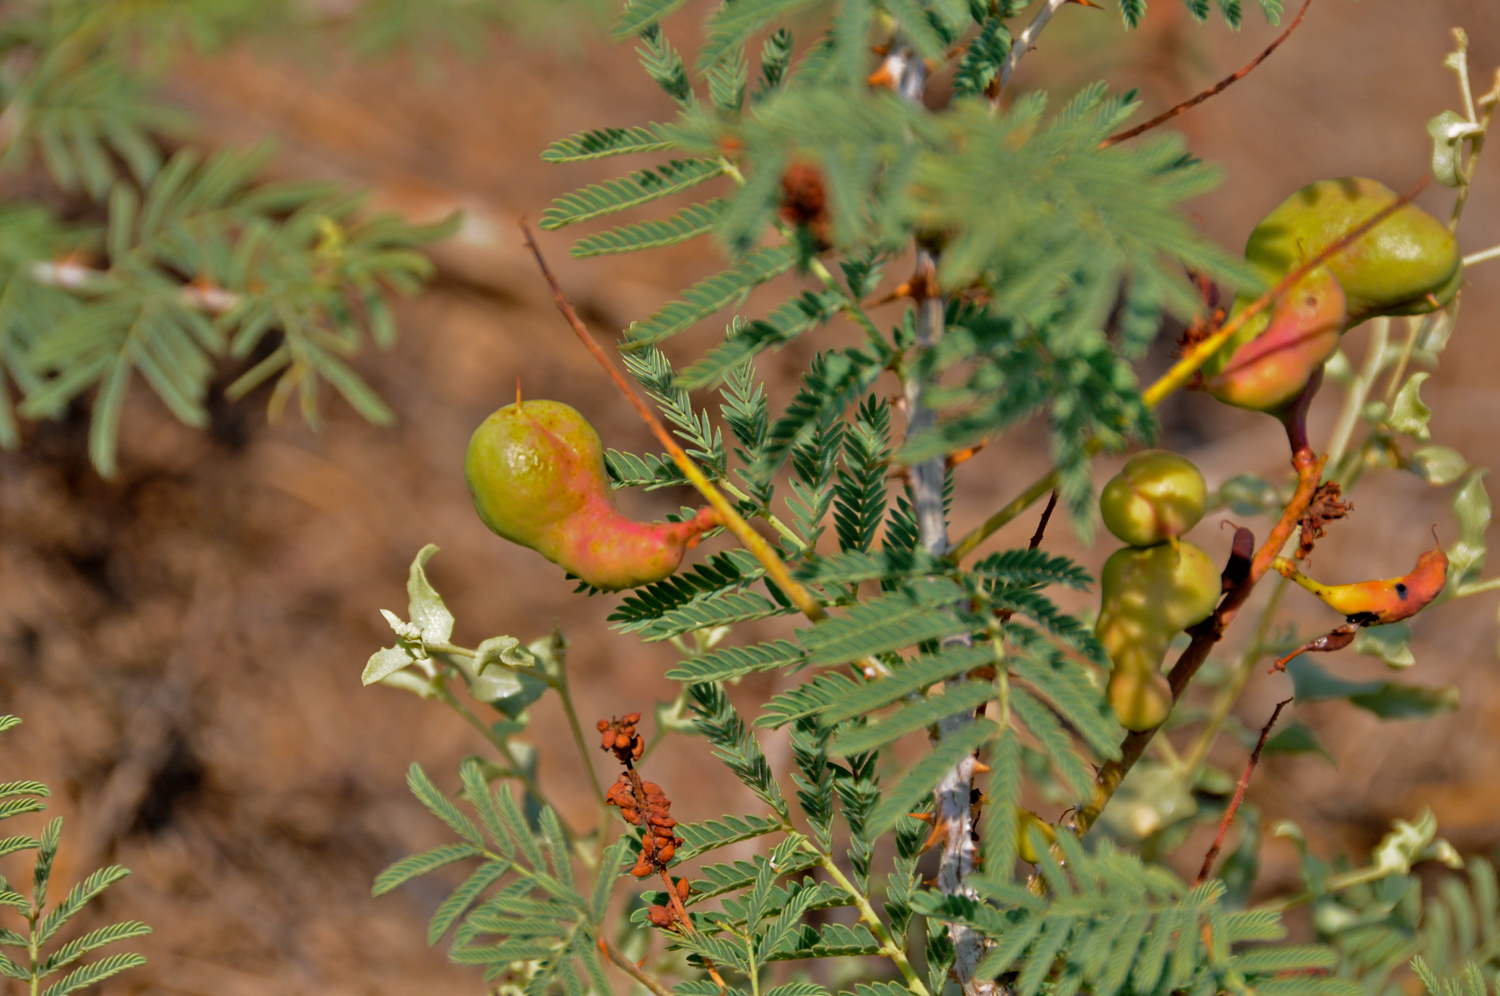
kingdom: Plantae
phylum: Tracheophyta
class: Magnoliopsida
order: Fabales
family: Fabaceae
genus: Prosopis
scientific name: Prosopis farcta
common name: Syrian mesquite
